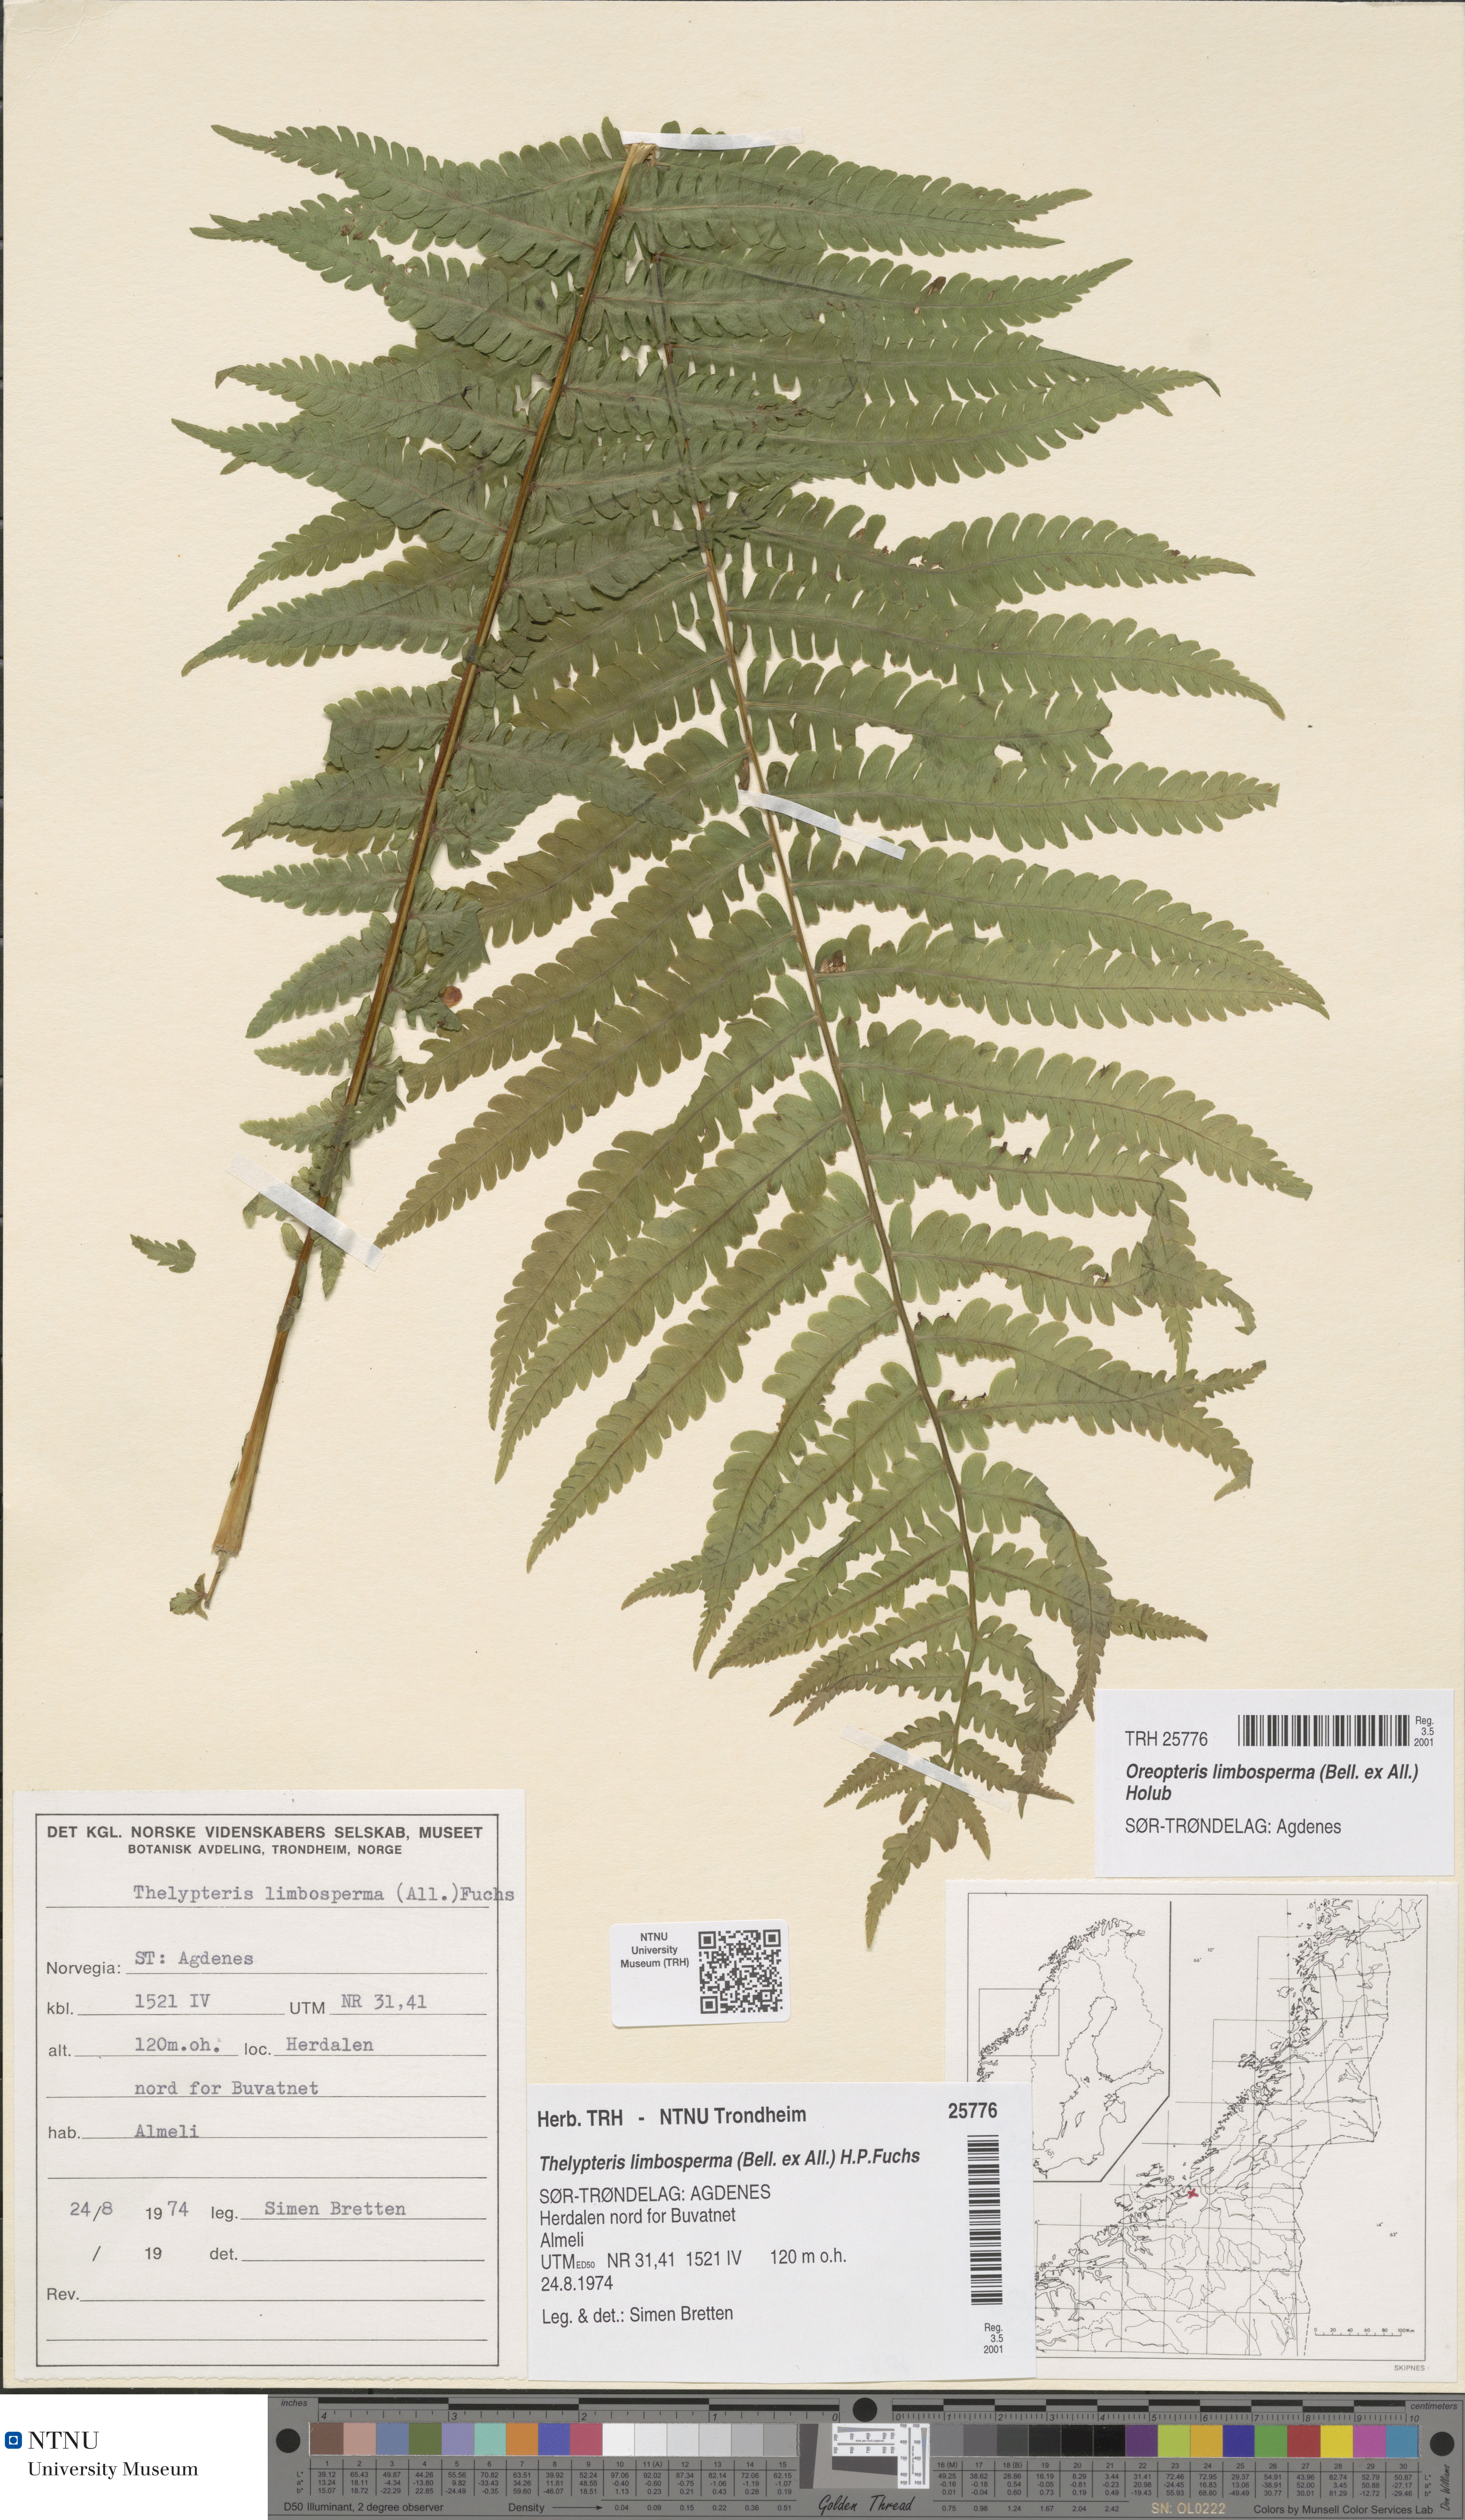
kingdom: Plantae
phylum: Tracheophyta
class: Polypodiopsida
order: Polypodiales
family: Thelypteridaceae
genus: Oreopteris
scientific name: Oreopteris limbosperma
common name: Lemon-scented fern
